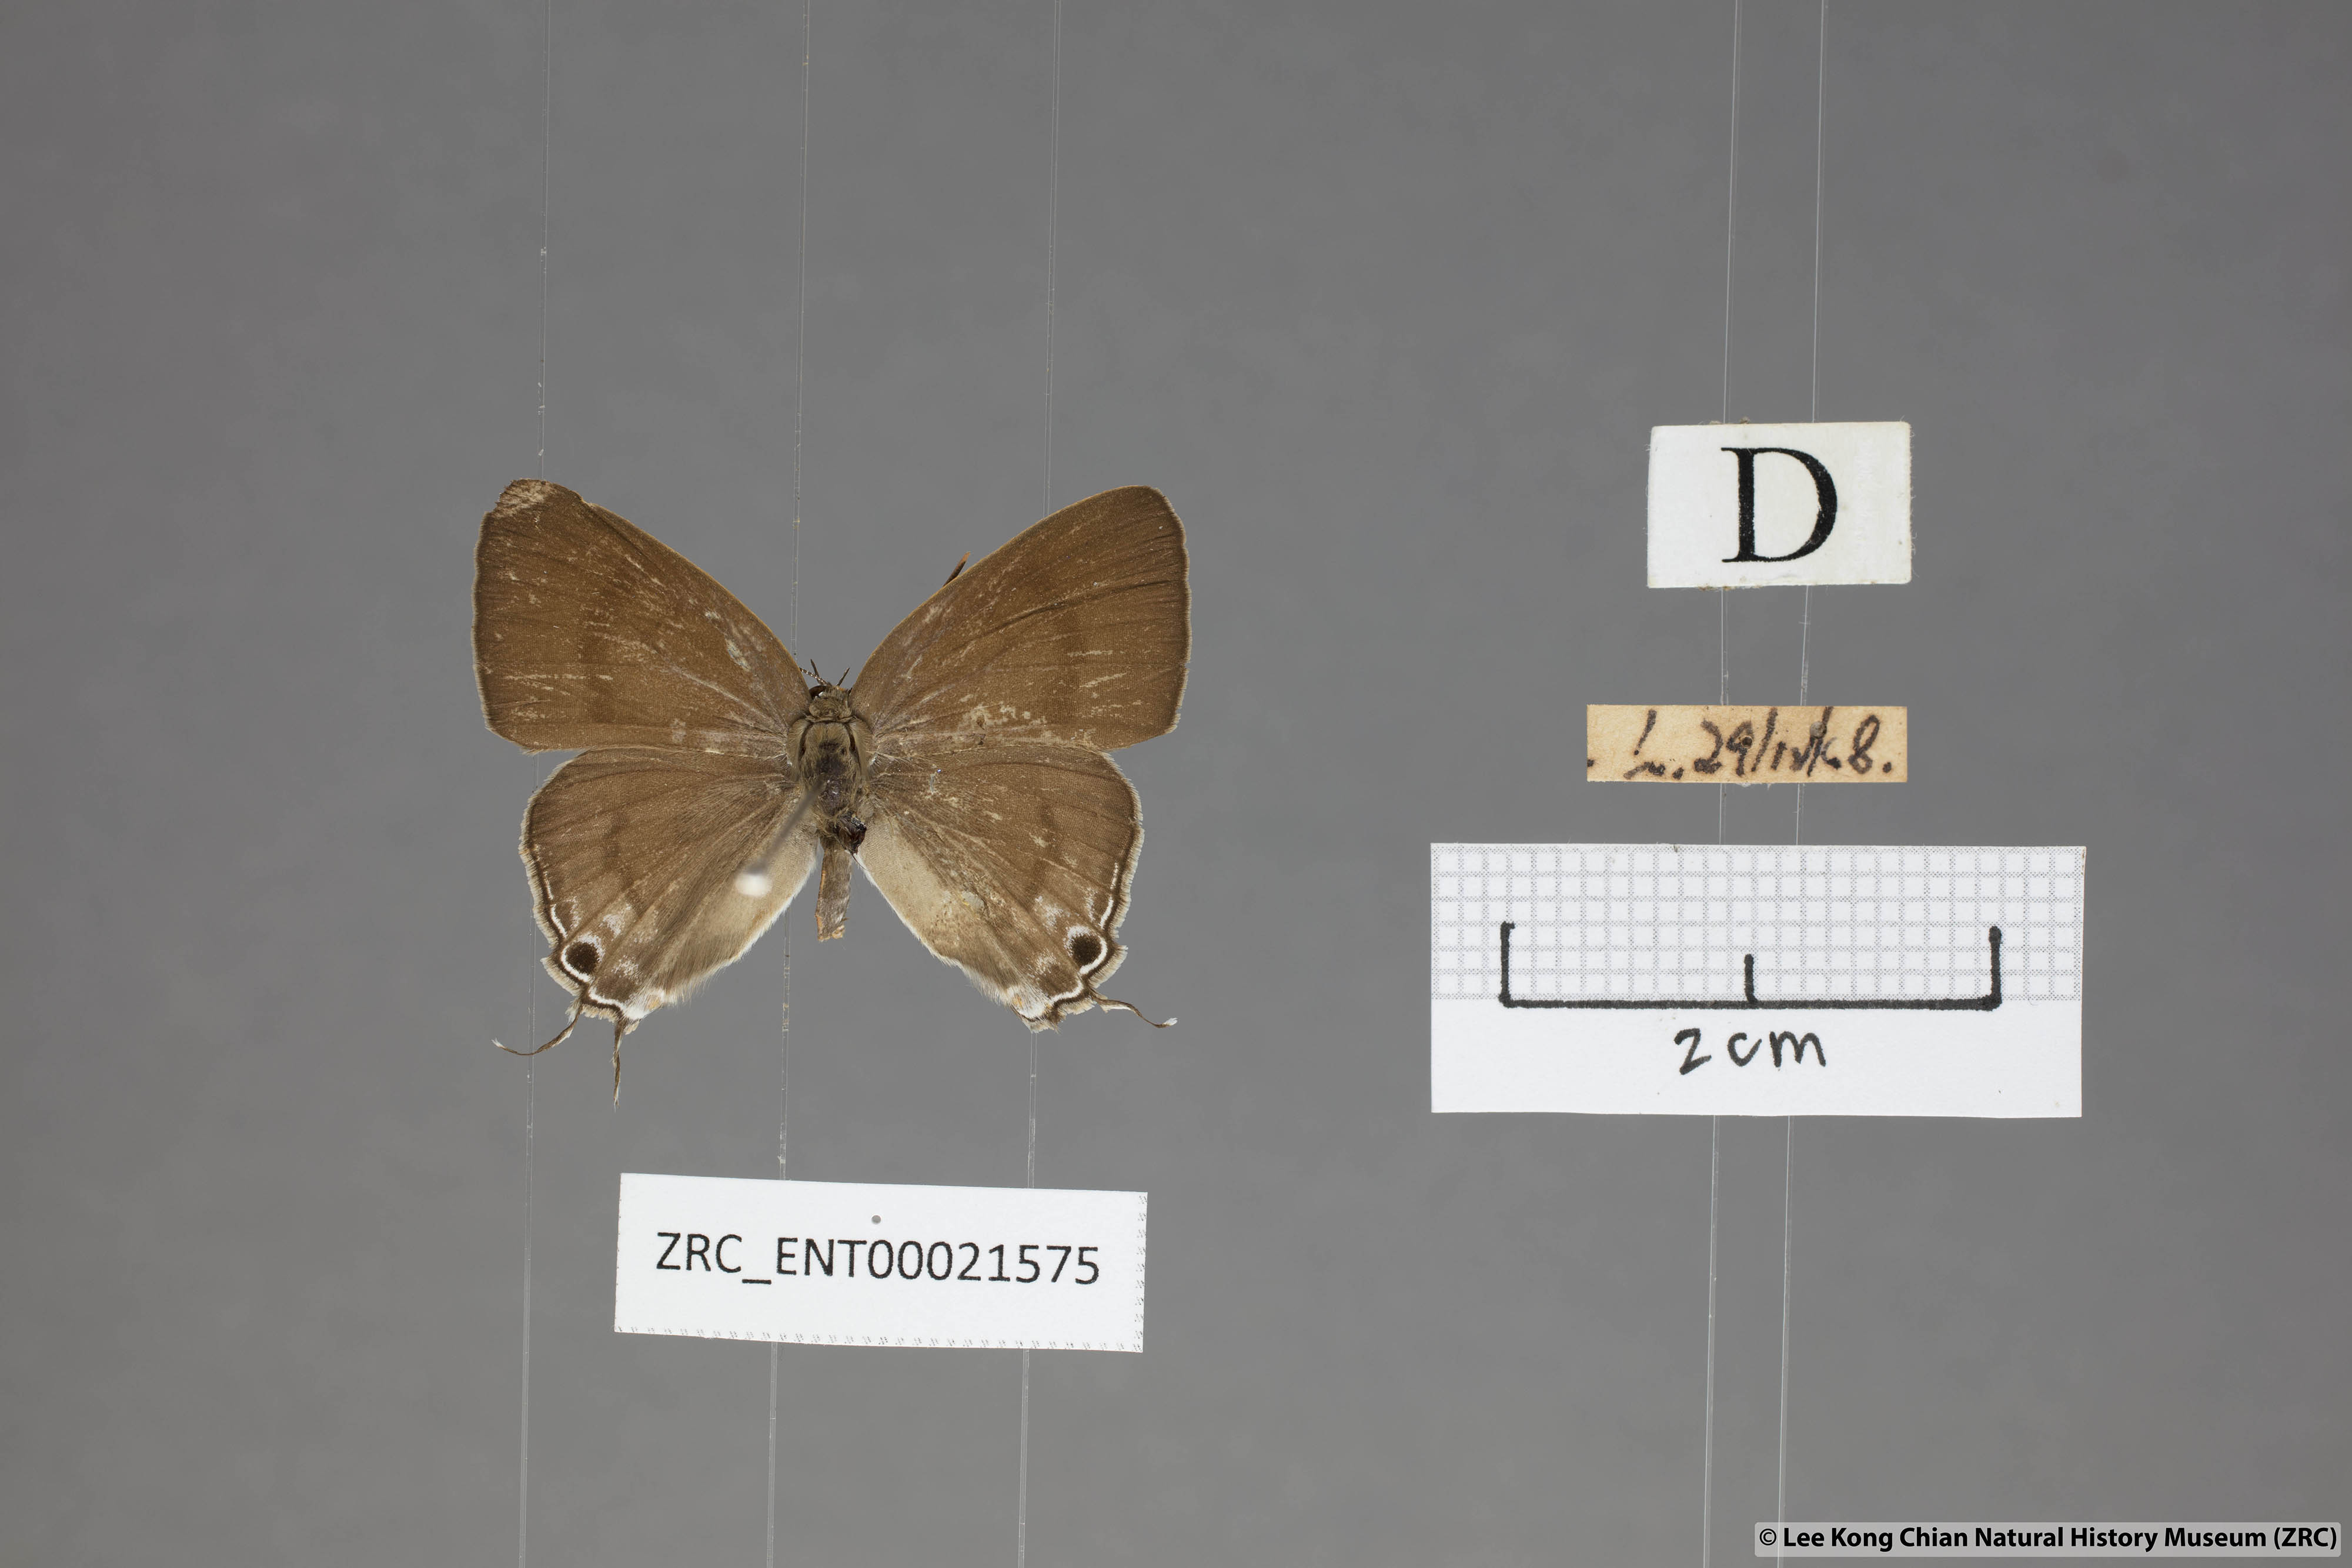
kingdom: Animalia
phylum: Arthropoda
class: Insecta
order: Lepidoptera
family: Lycaenidae
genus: Hypolycaena
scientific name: Hypolycaena erylus
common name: Common tit
